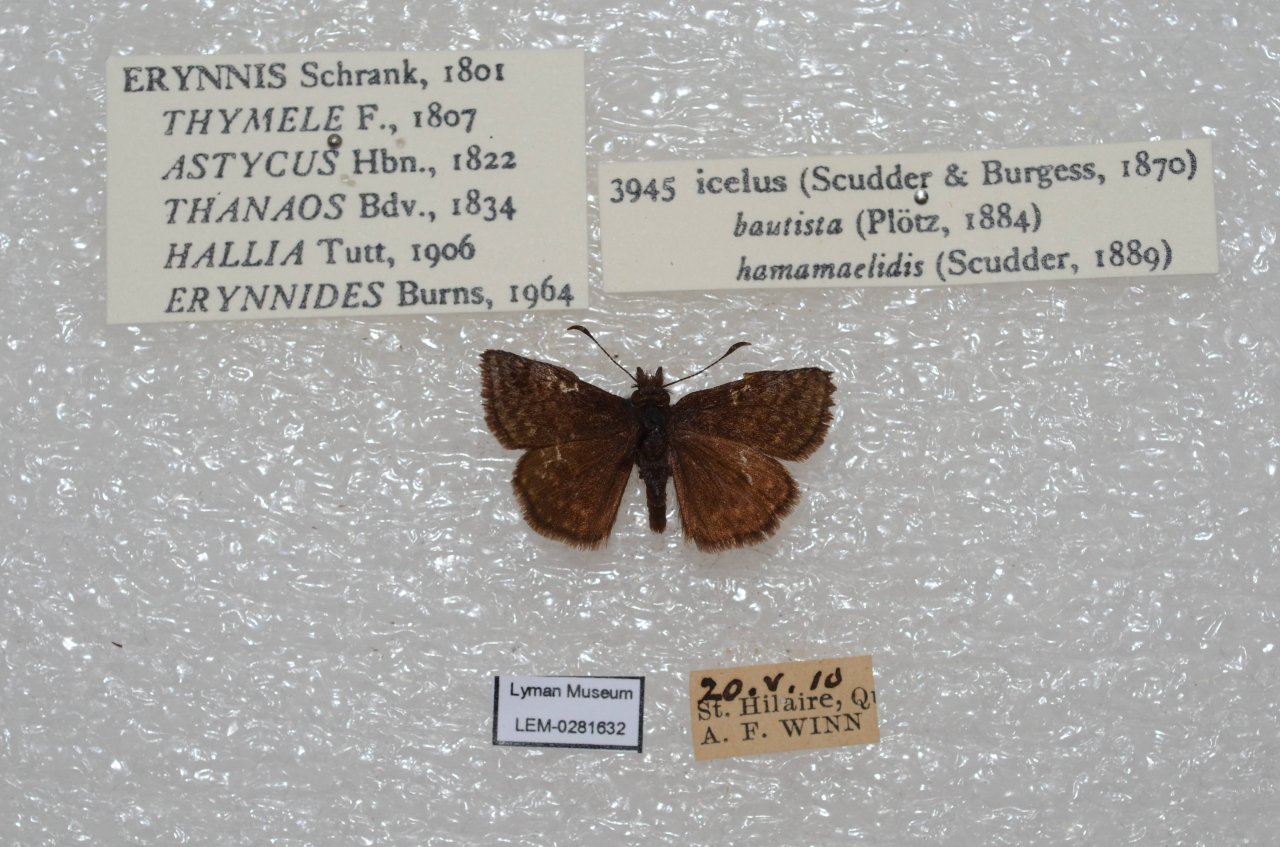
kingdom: Animalia
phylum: Arthropoda
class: Insecta
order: Lepidoptera
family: Hesperiidae
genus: Erynnis
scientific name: Erynnis icelus
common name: Dreamy Duskywing
